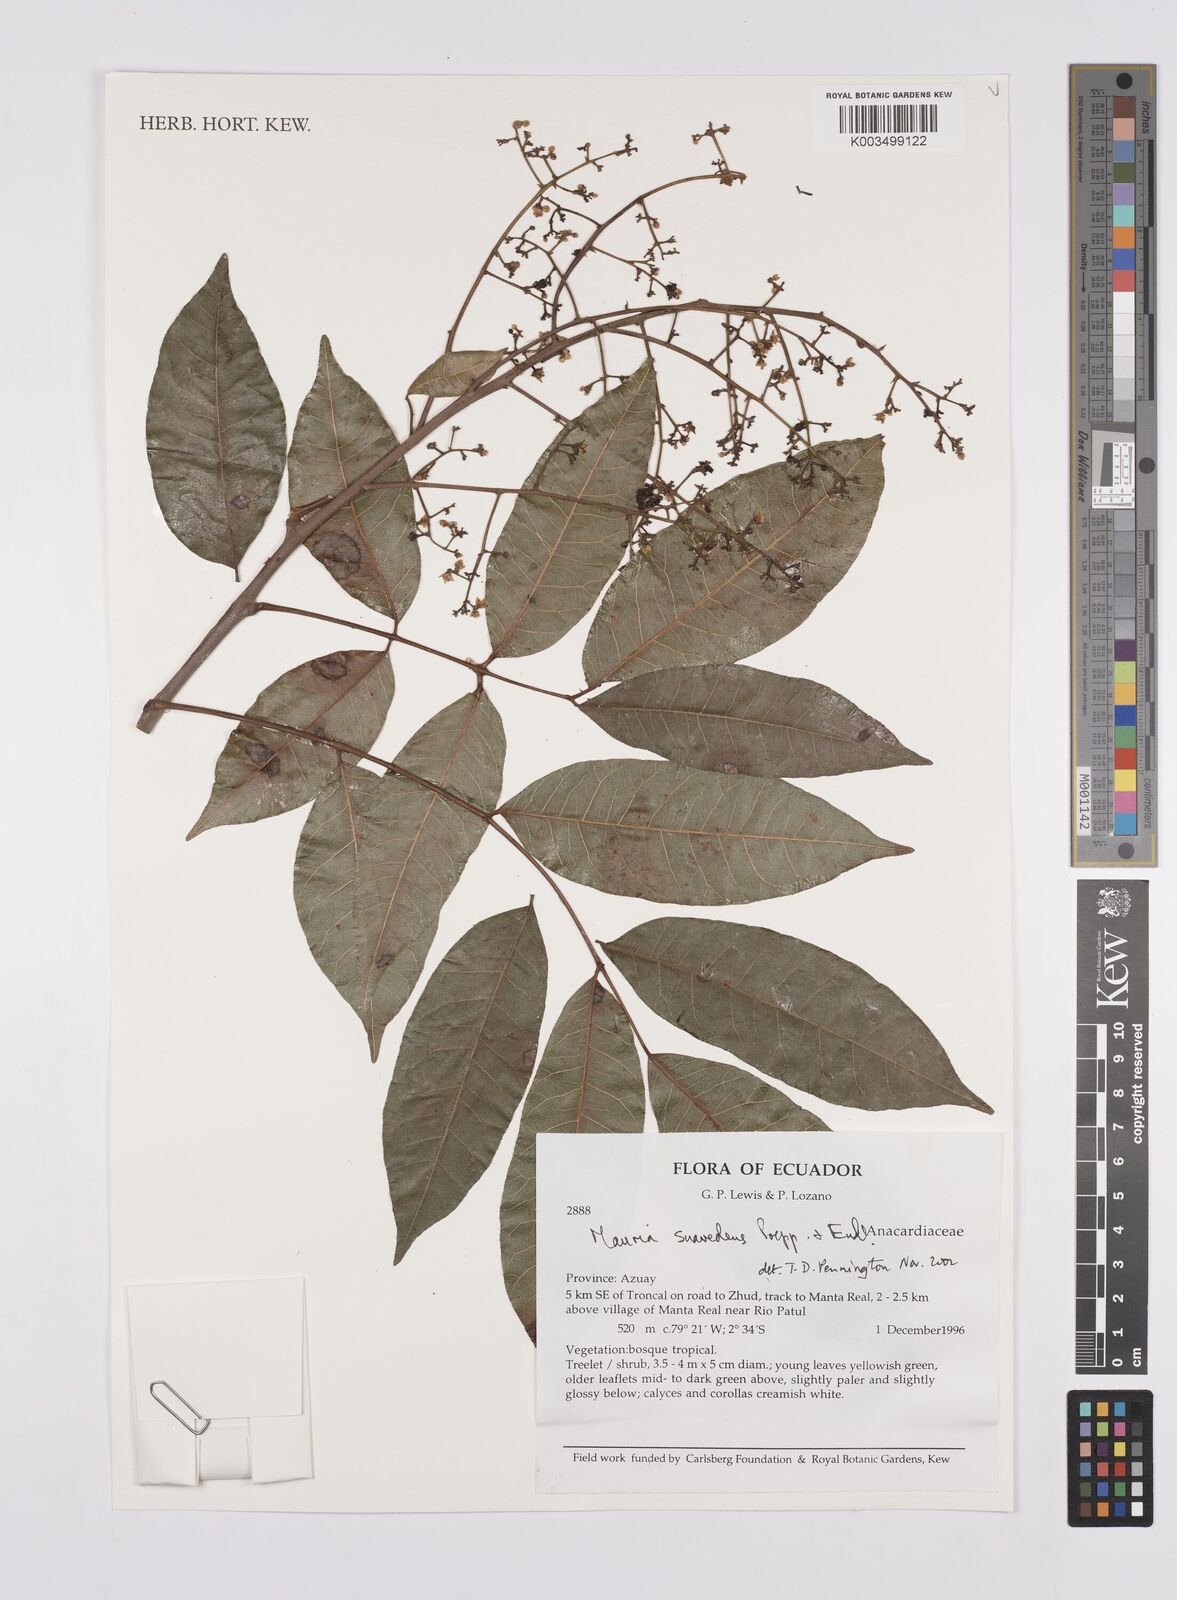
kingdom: Plantae
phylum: Tracheophyta
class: Magnoliopsida
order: Sapindales
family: Anacardiaceae
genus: Mauria
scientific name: Mauria heterophylla
